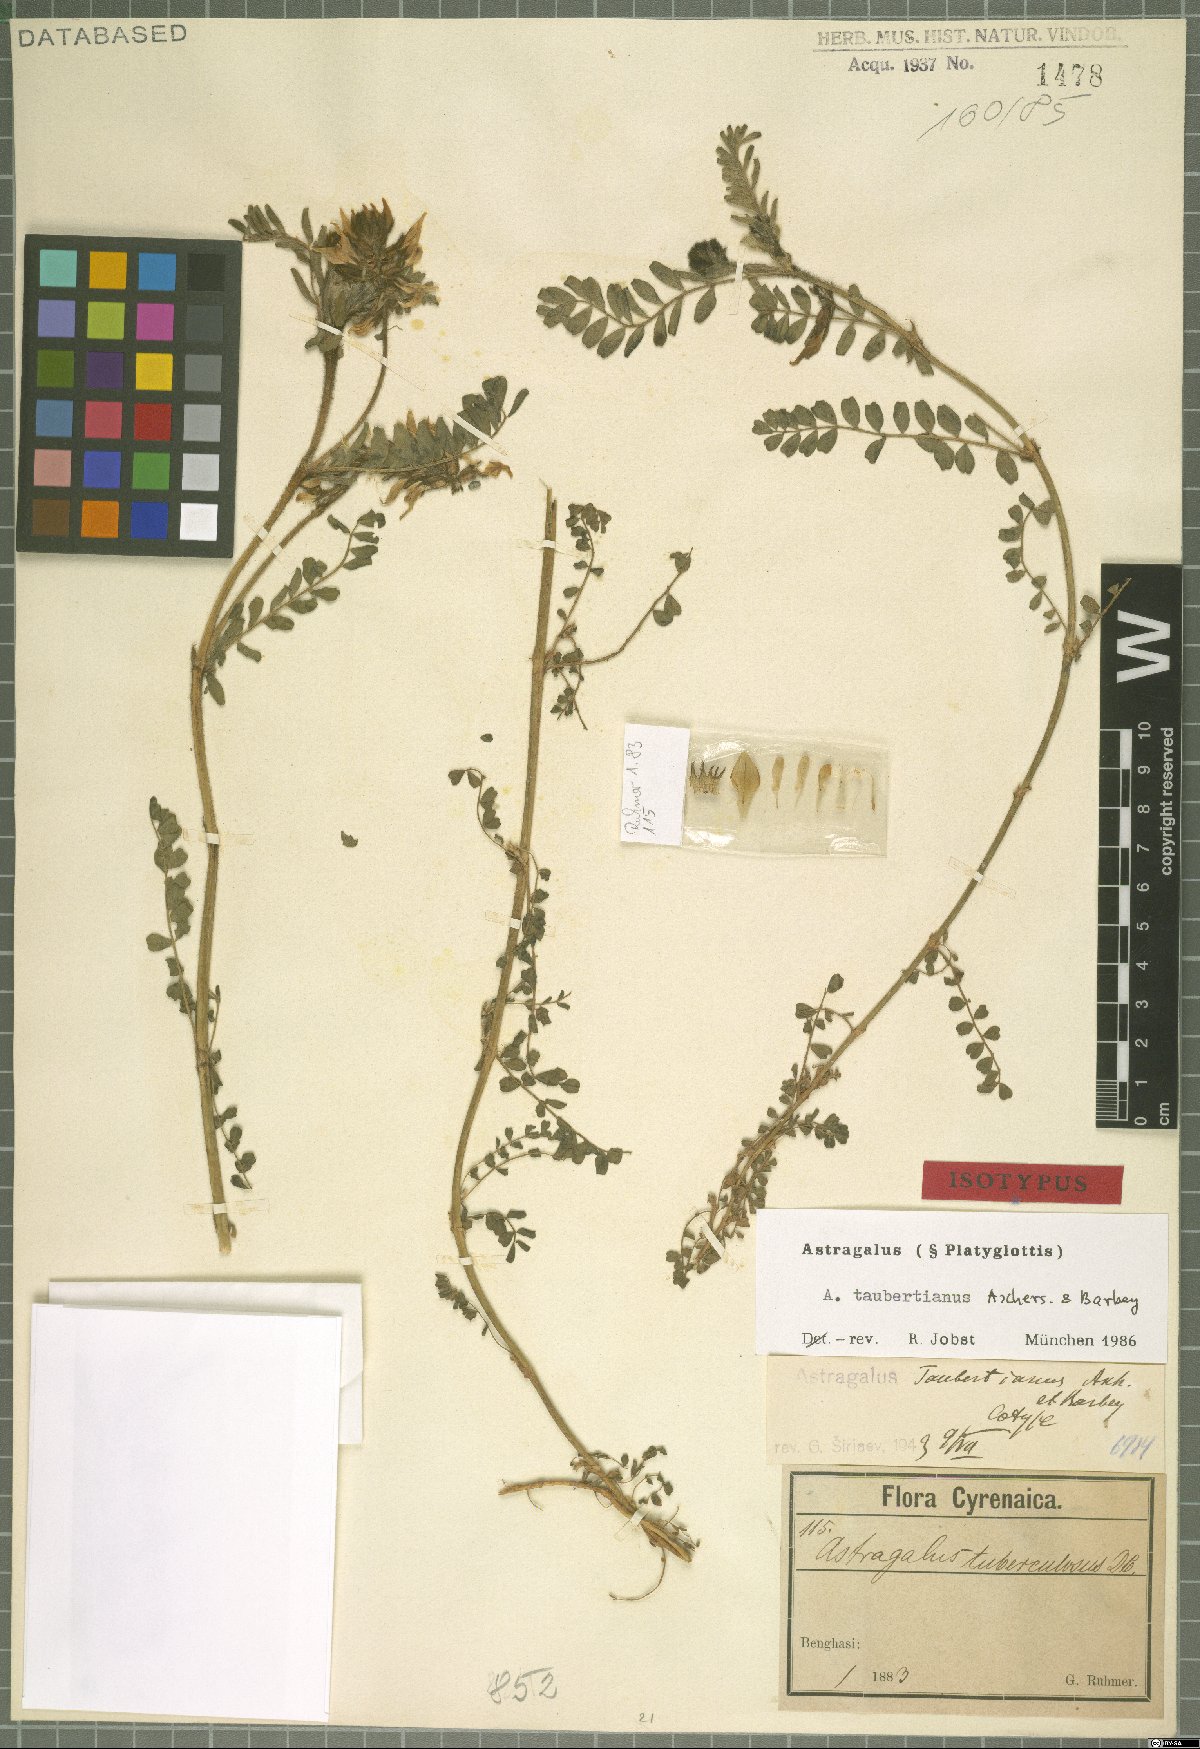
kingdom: Plantae
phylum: Tracheophyta
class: Magnoliopsida
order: Fabales
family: Fabaceae
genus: Astragalus
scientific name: Astragalus taubertianus
